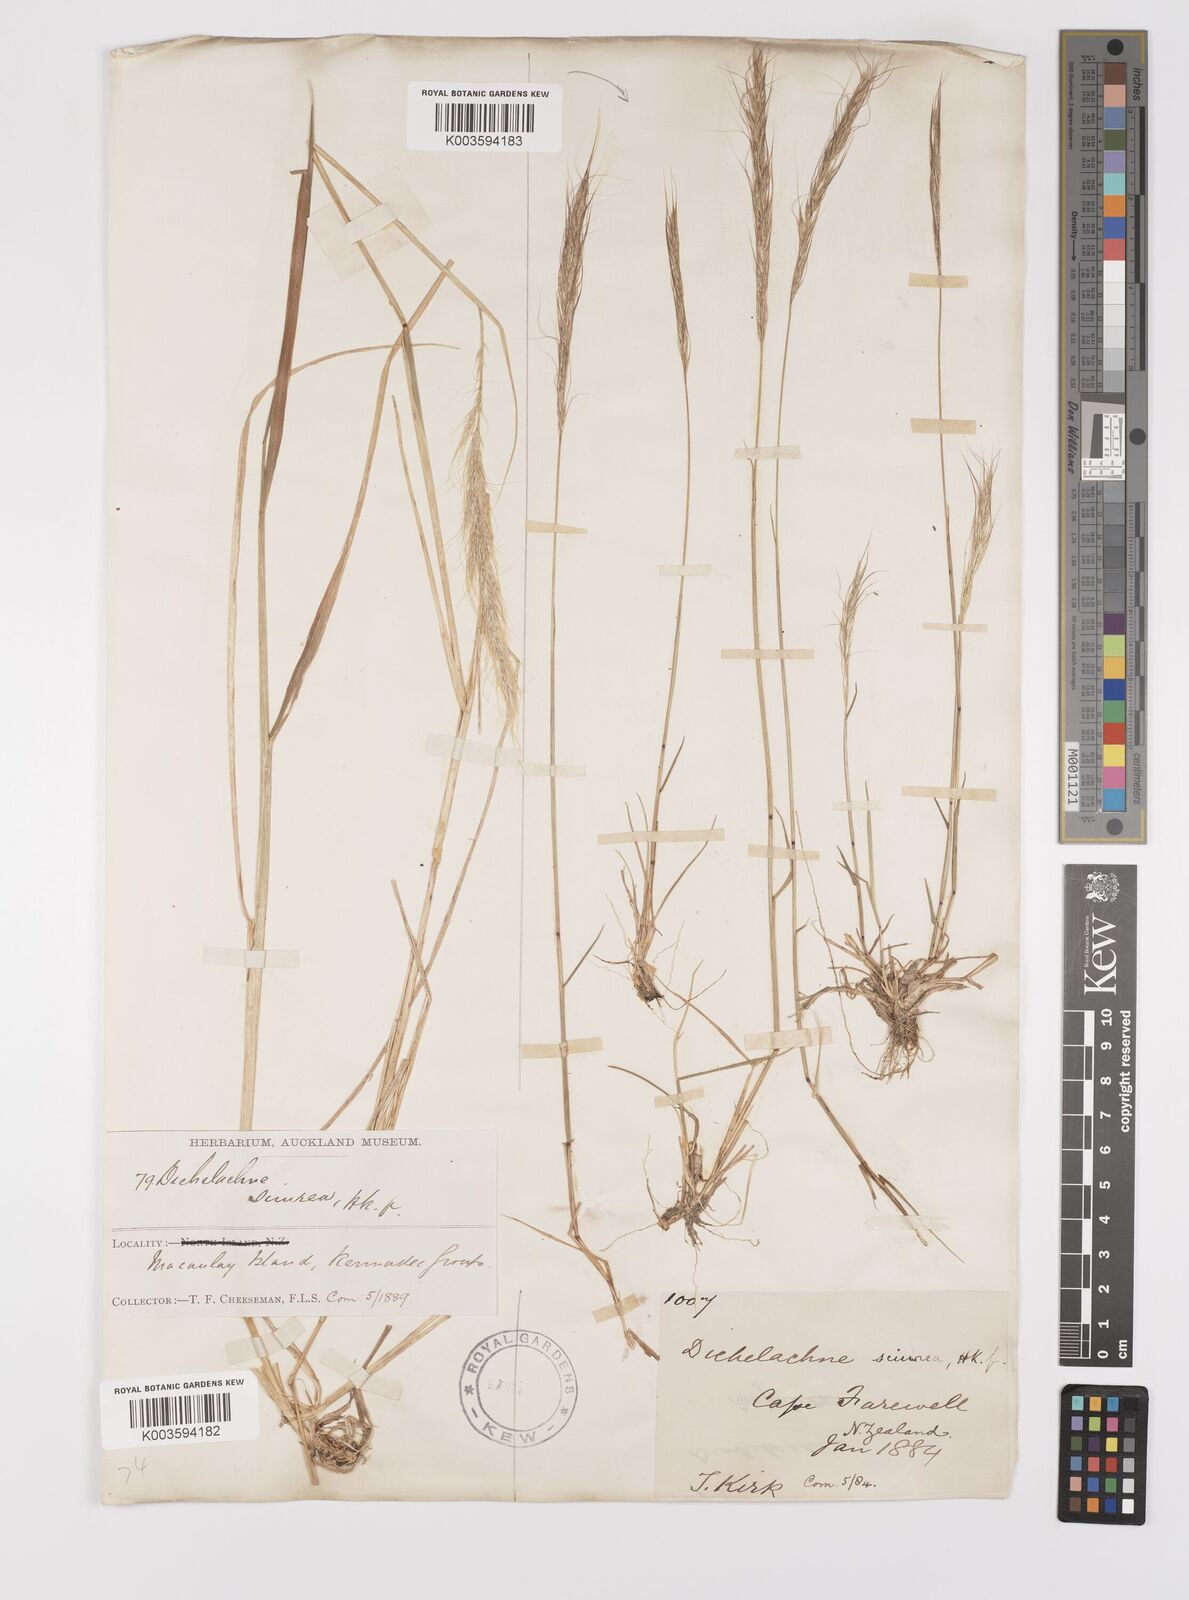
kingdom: Plantae
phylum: Tracheophyta
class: Liliopsida
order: Poales
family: Poaceae
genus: Dichelachne
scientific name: Dichelachne micrantha
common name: Plumegrass
